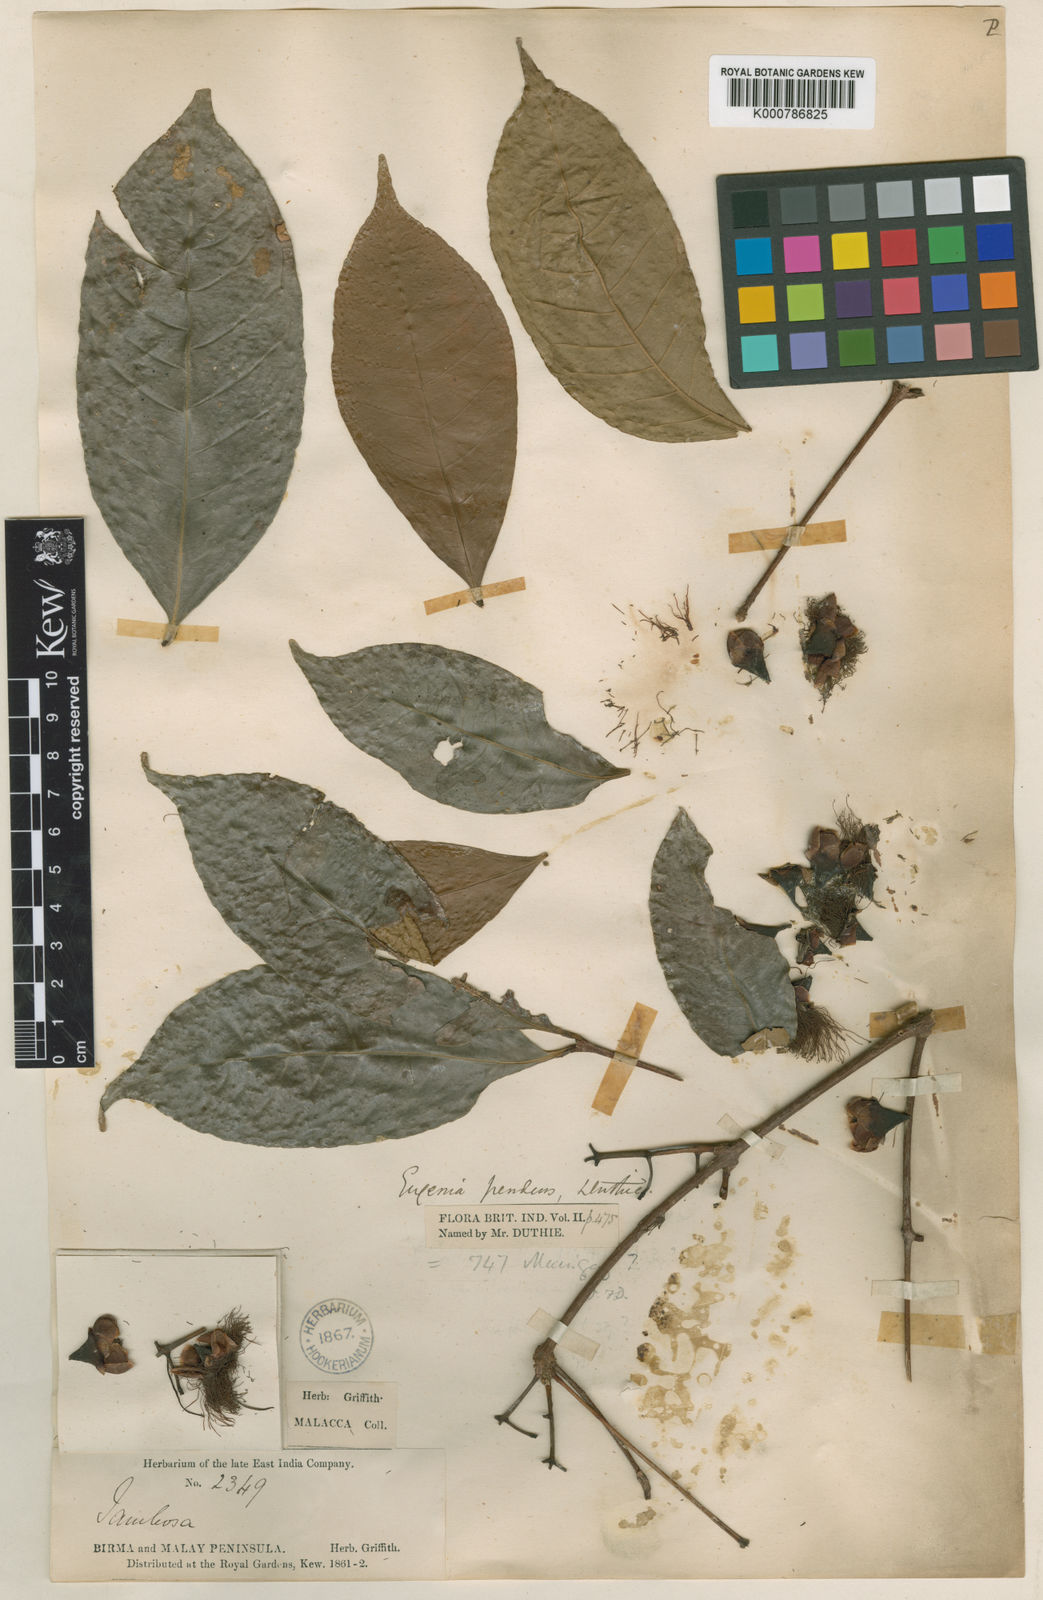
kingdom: Plantae
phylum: Tracheophyta
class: Magnoliopsida
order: Myrtales
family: Myrtaceae
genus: Syzygium
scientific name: Syzygium tiumanense
